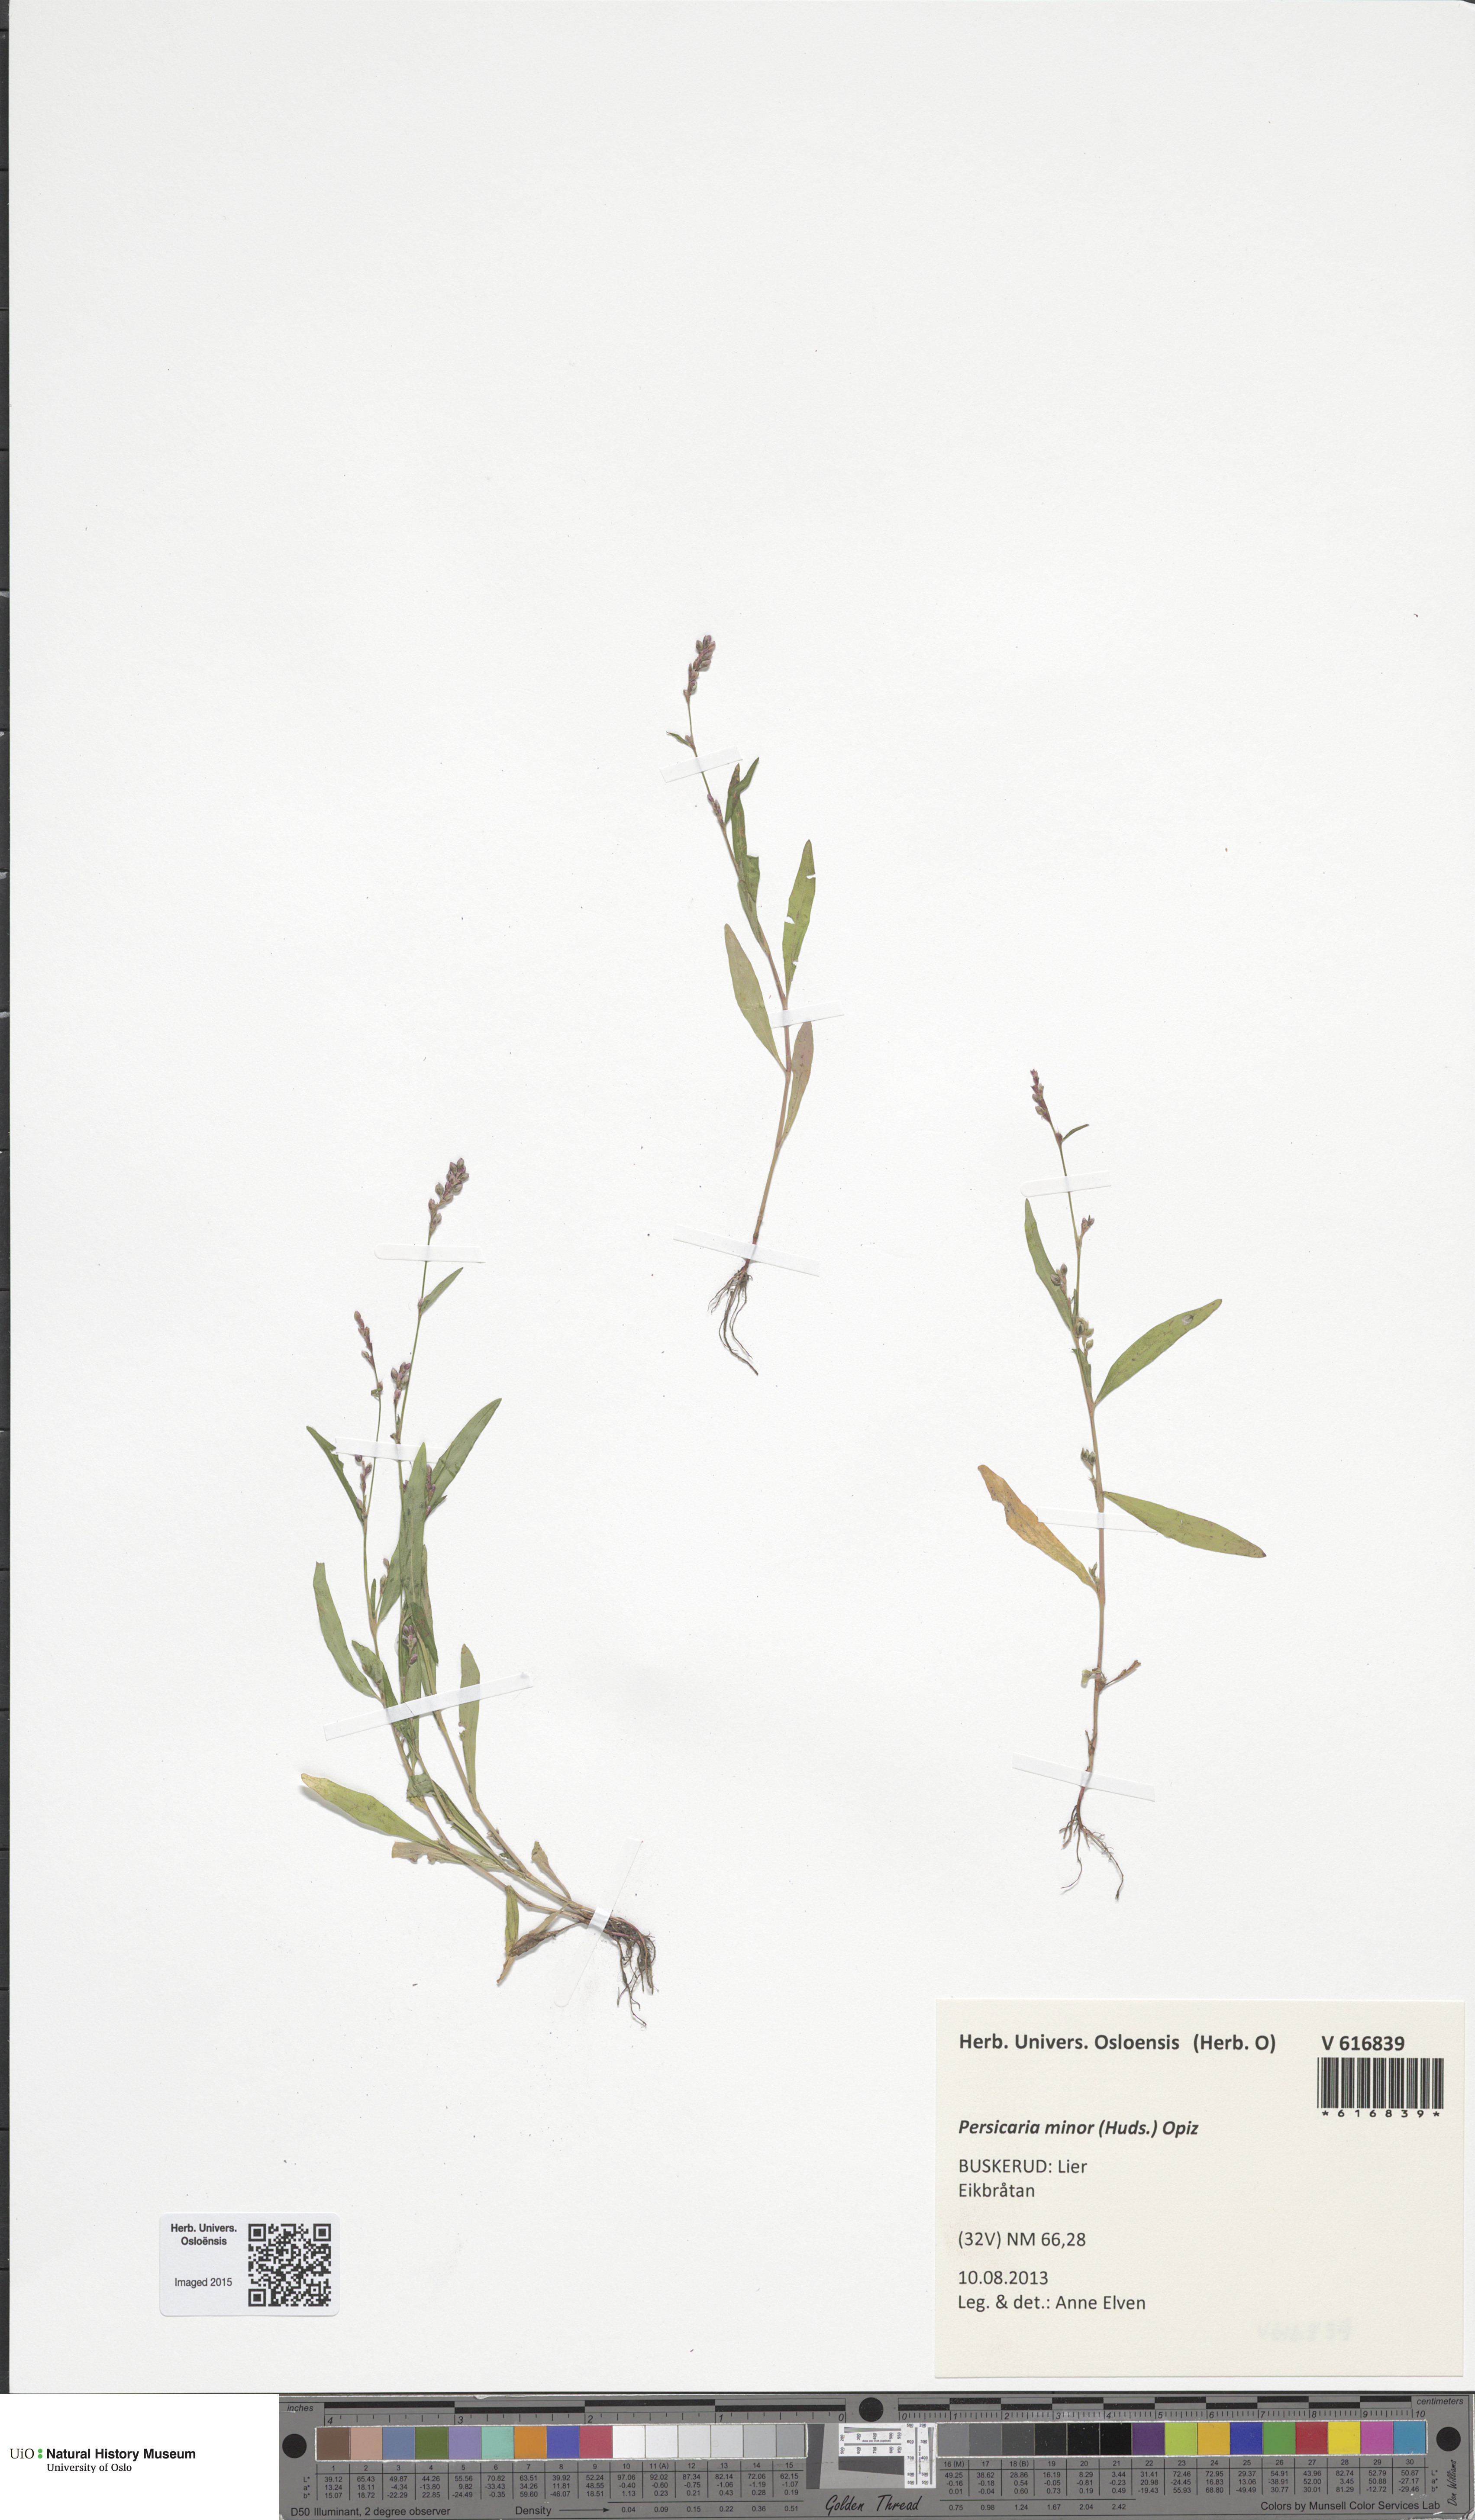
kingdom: Plantae
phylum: Tracheophyta
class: Magnoliopsida
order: Caryophyllales
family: Polygonaceae
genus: Persicaria
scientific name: Persicaria minor
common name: Small water-pepper
